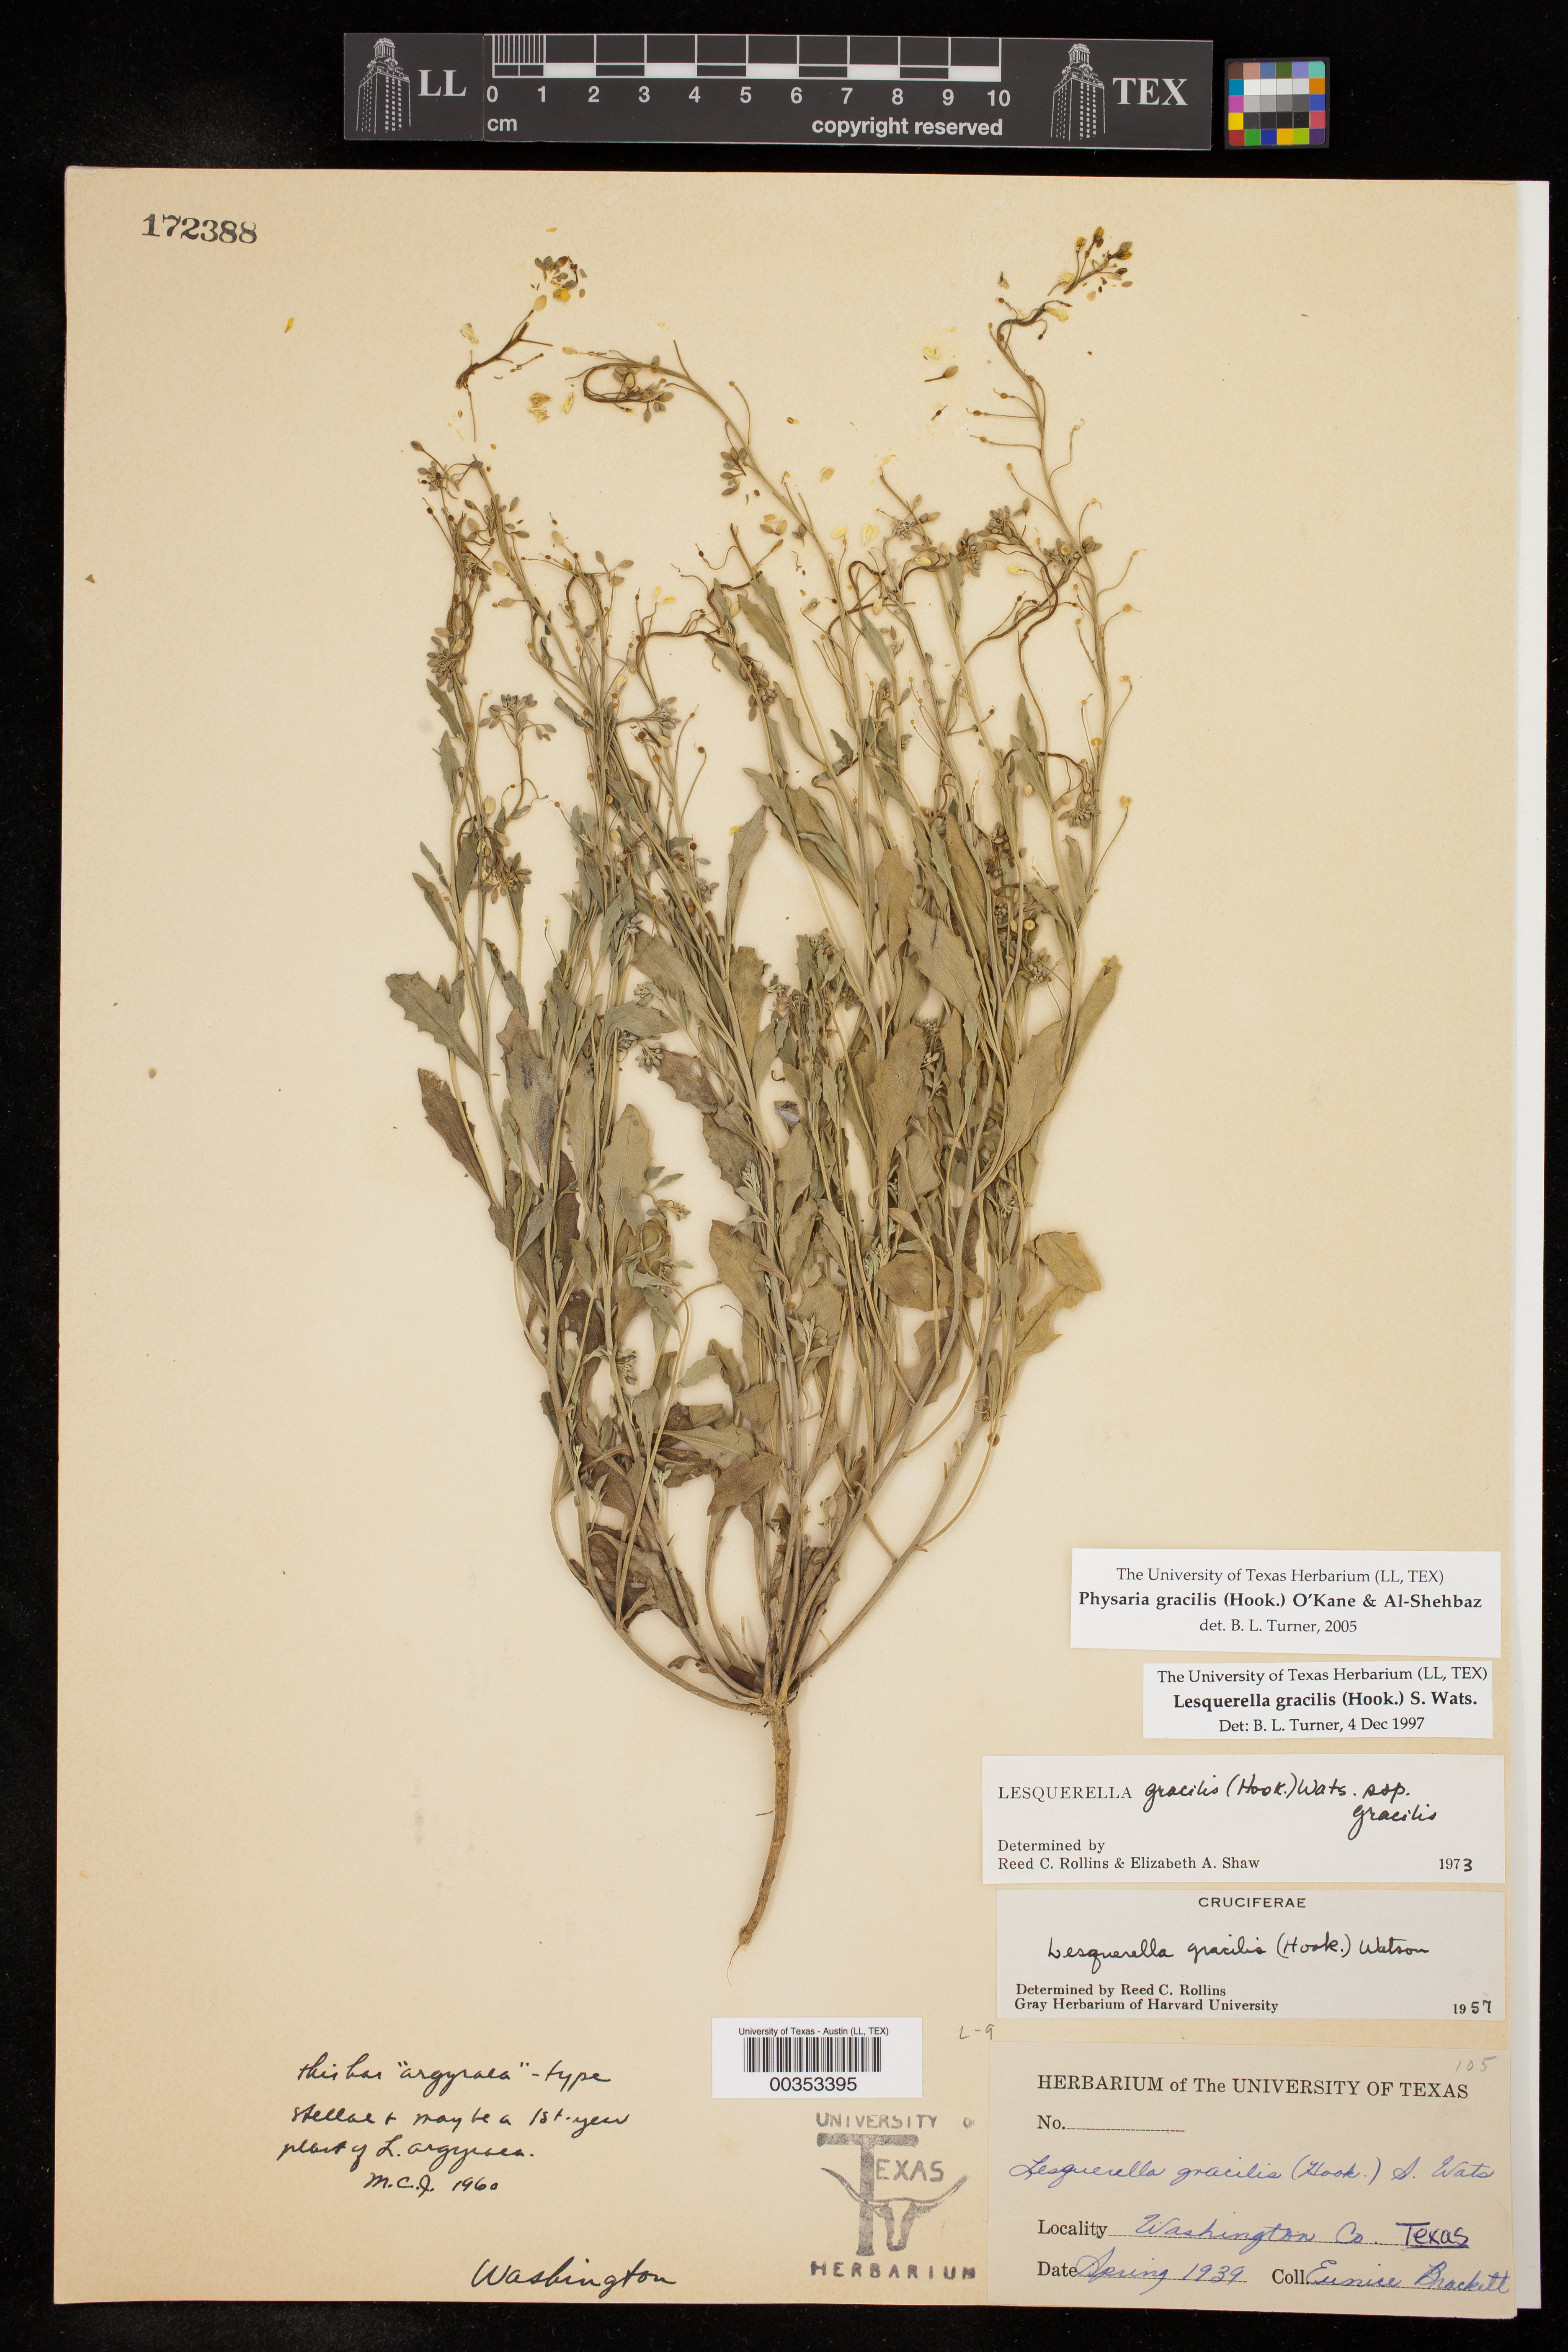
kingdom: Plantae
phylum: Tracheophyta
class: Magnoliopsida
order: Brassicales
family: Brassicaceae
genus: Physaria
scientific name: Physaria gracilis
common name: Spreading bladderpod
